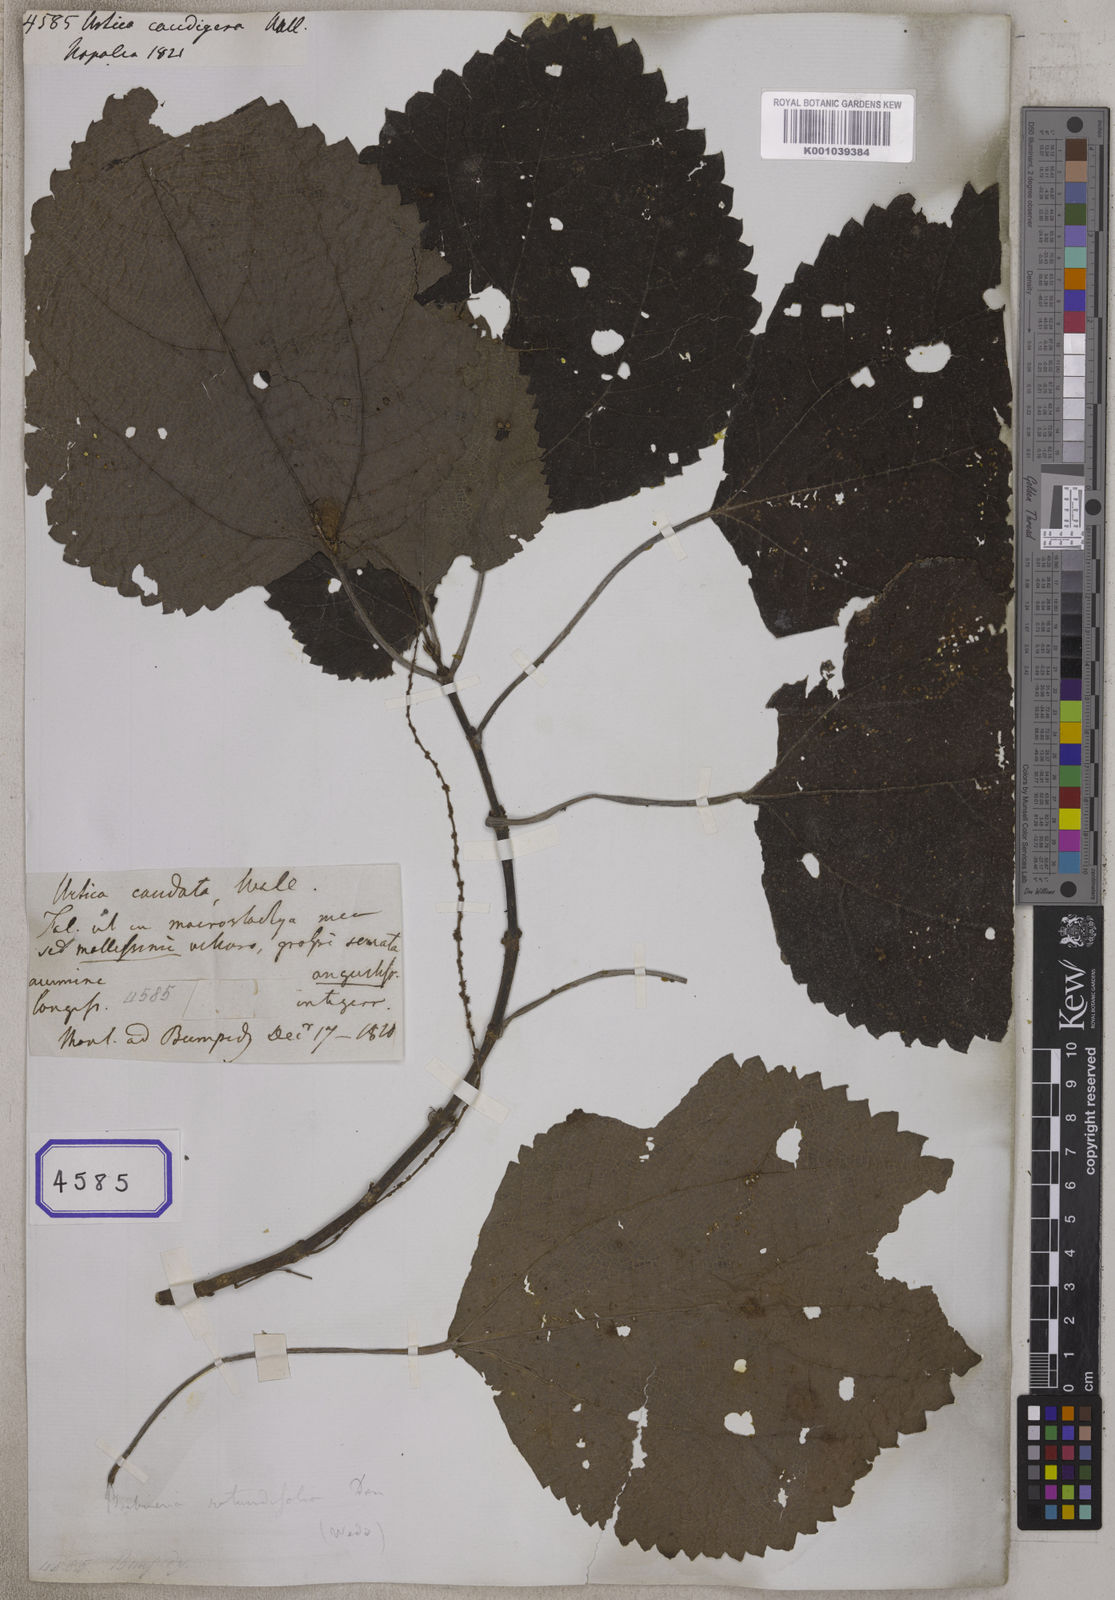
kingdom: Plantae
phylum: Tracheophyta
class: Magnoliopsida
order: Rosales
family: Urticaceae
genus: Boehmeria
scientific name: Boehmeria ternifolia
